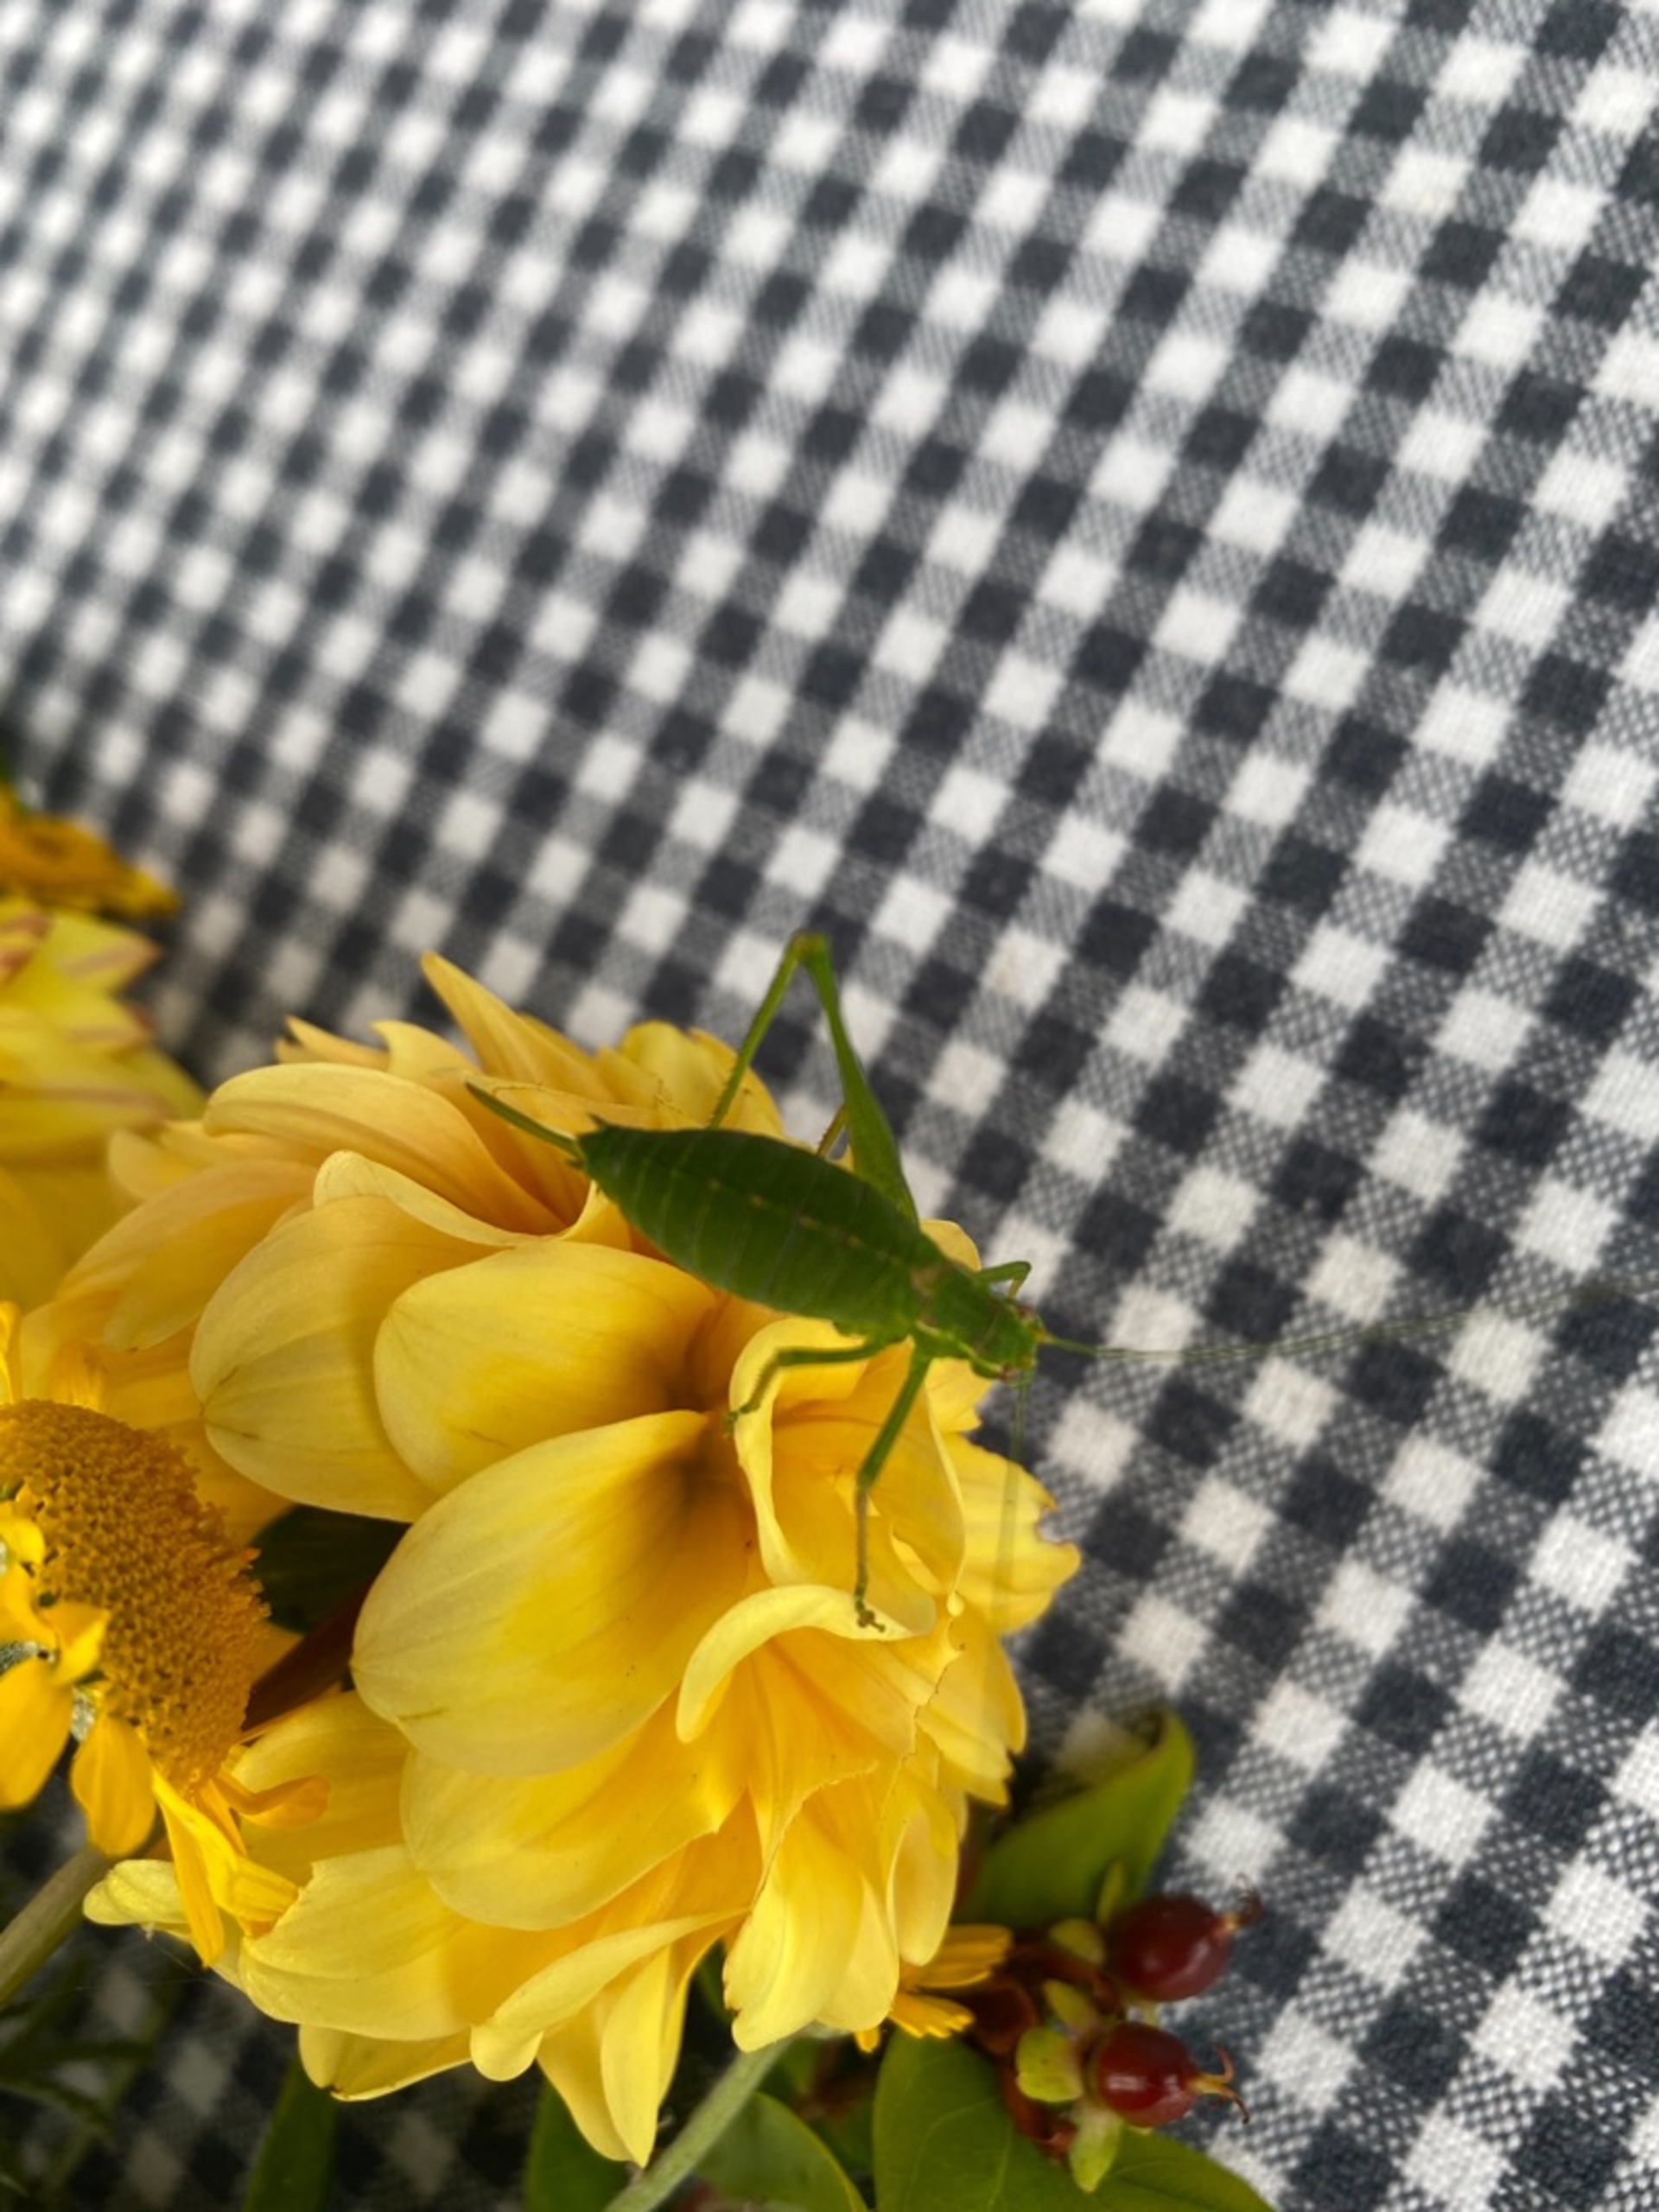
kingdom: Animalia
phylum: Arthropoda
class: Insecta
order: Orthoptera
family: Tettigoniidae
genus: Leptophyes
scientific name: Leptophyes punctatissima
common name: Krumknivgræshoppe
